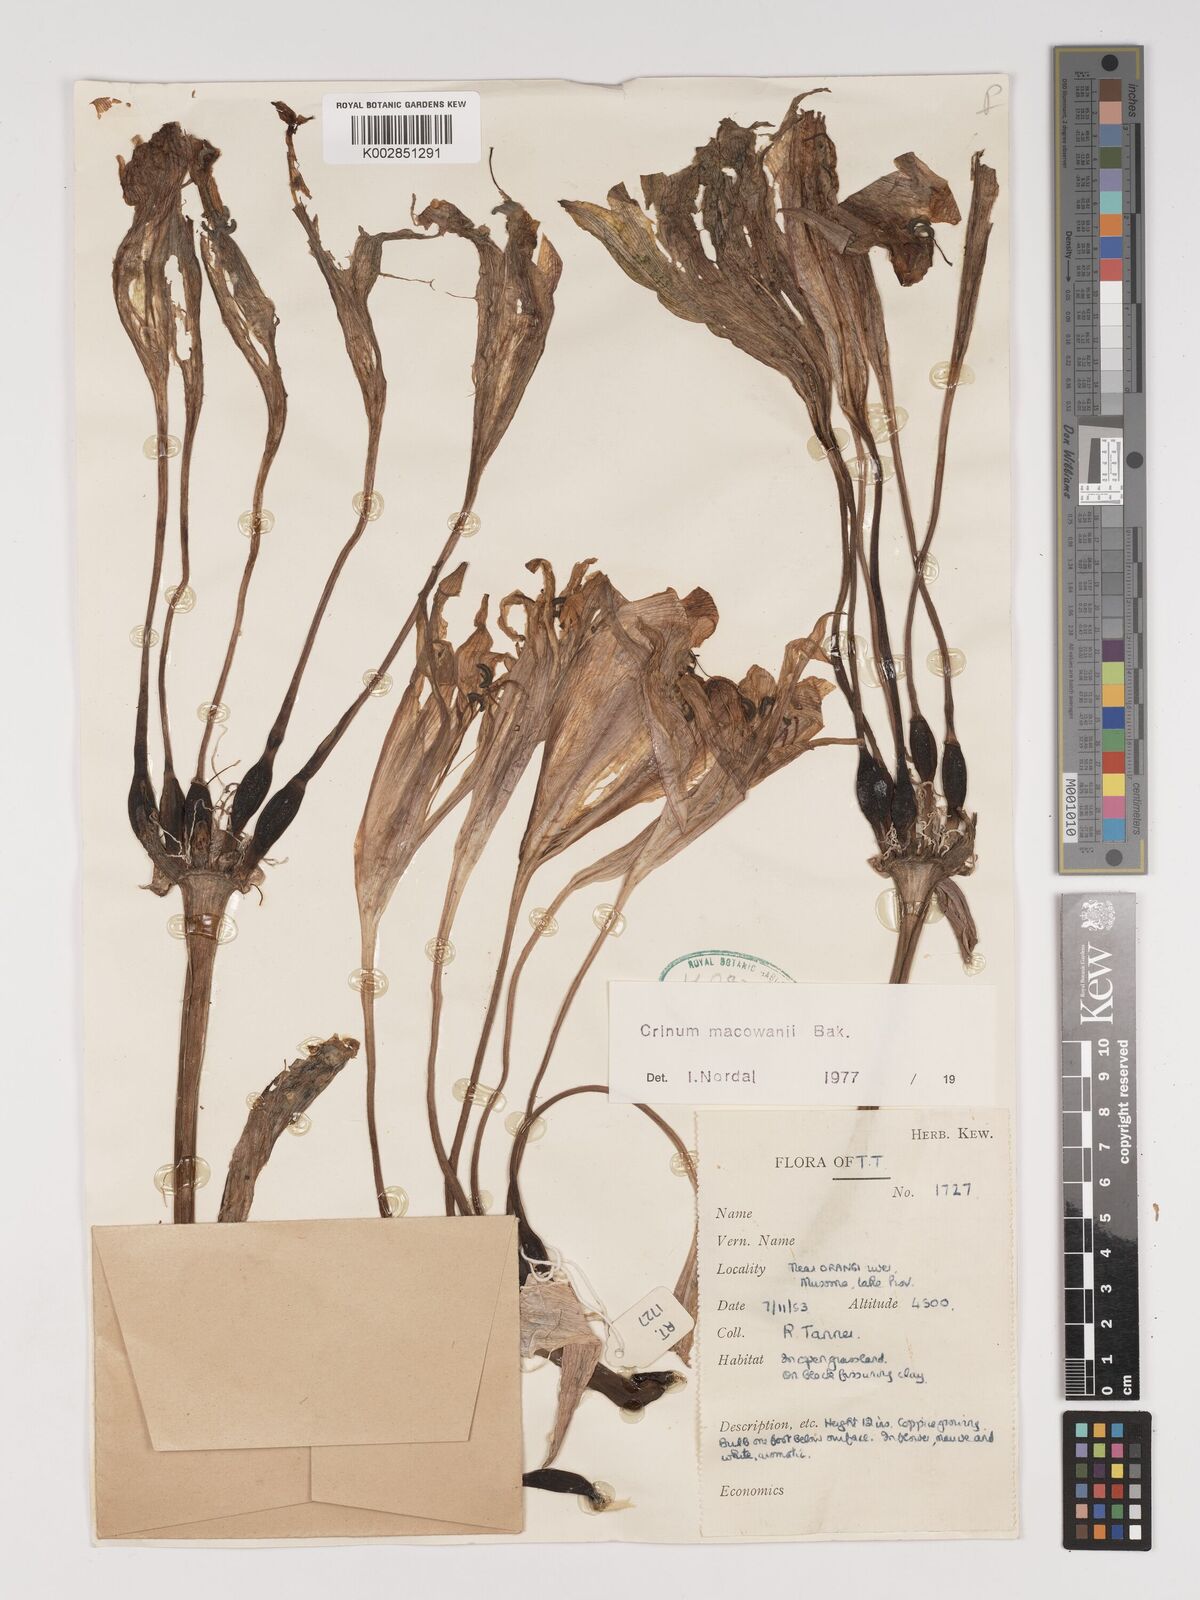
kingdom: Plantae
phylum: Tracheophyta
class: Liliopsida
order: Asparagales
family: Amaryllidaceae
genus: Crinum
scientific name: Crinum macowanii
